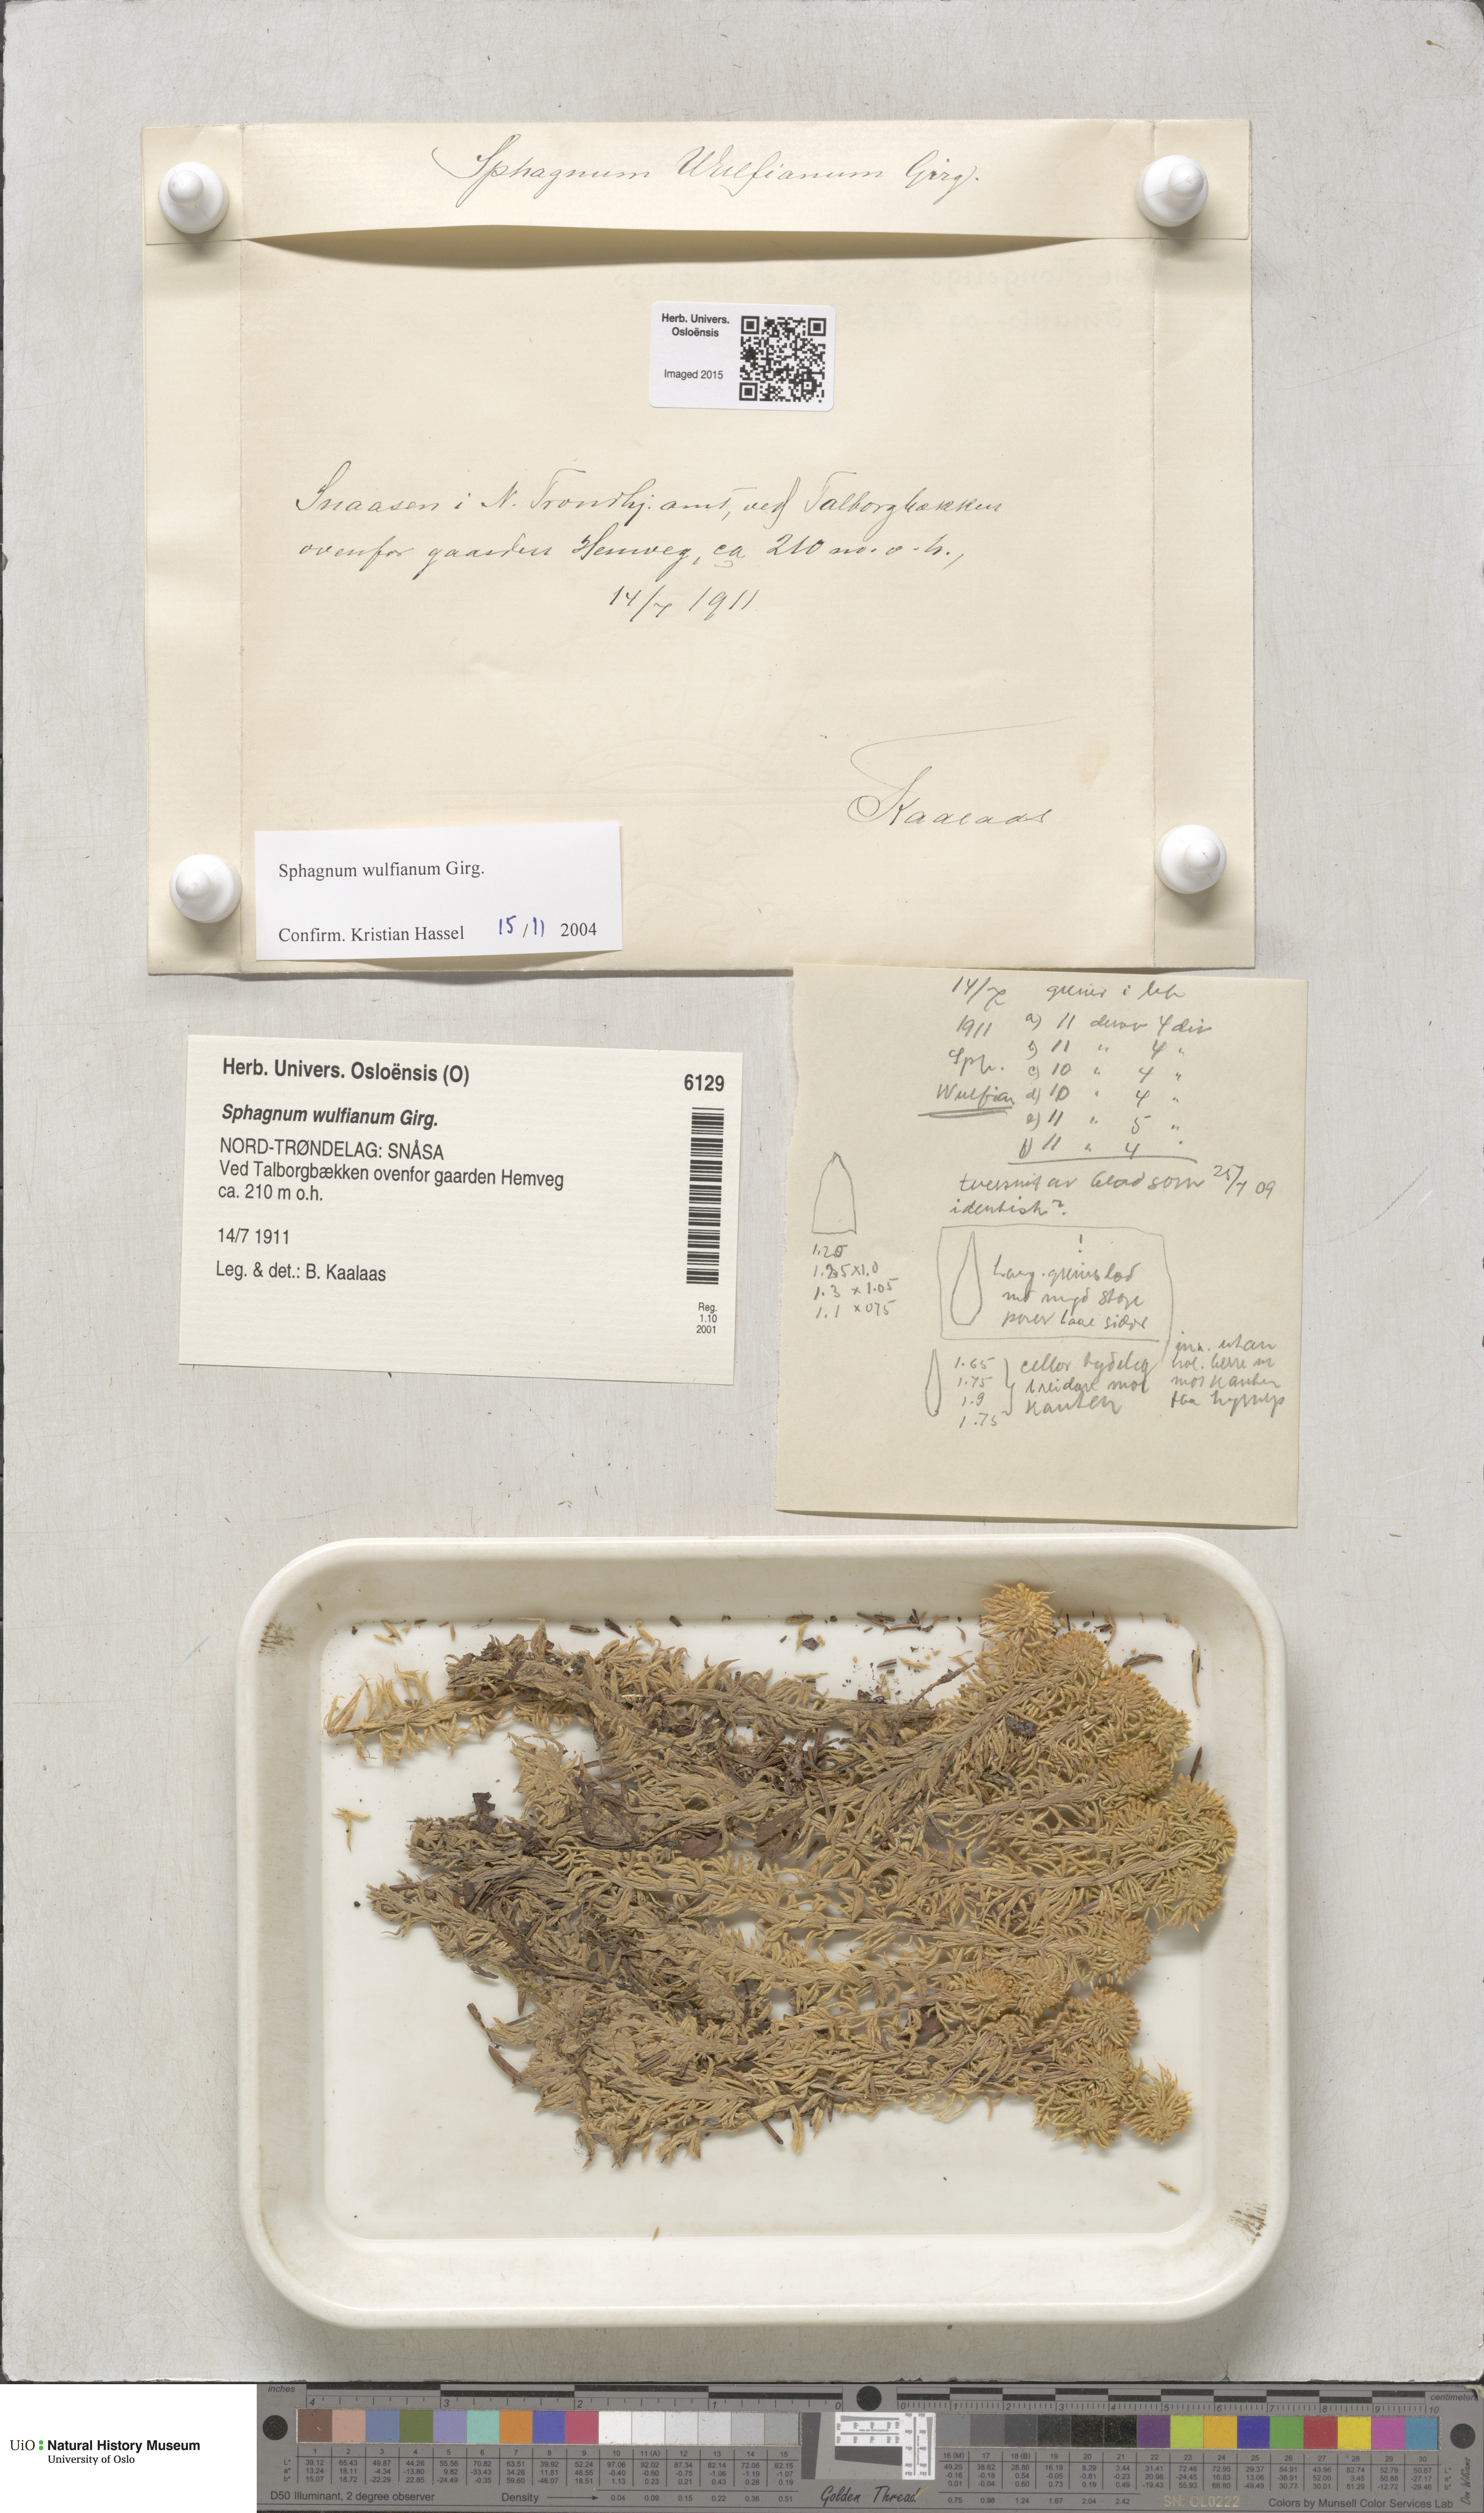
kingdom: Plantae
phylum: Bryophyta
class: Sphagnopsida
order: Sphagnales
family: Sphagnaceae
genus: Sphagnum
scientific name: Sphagnum wulfianum
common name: Wulf's peat moss
